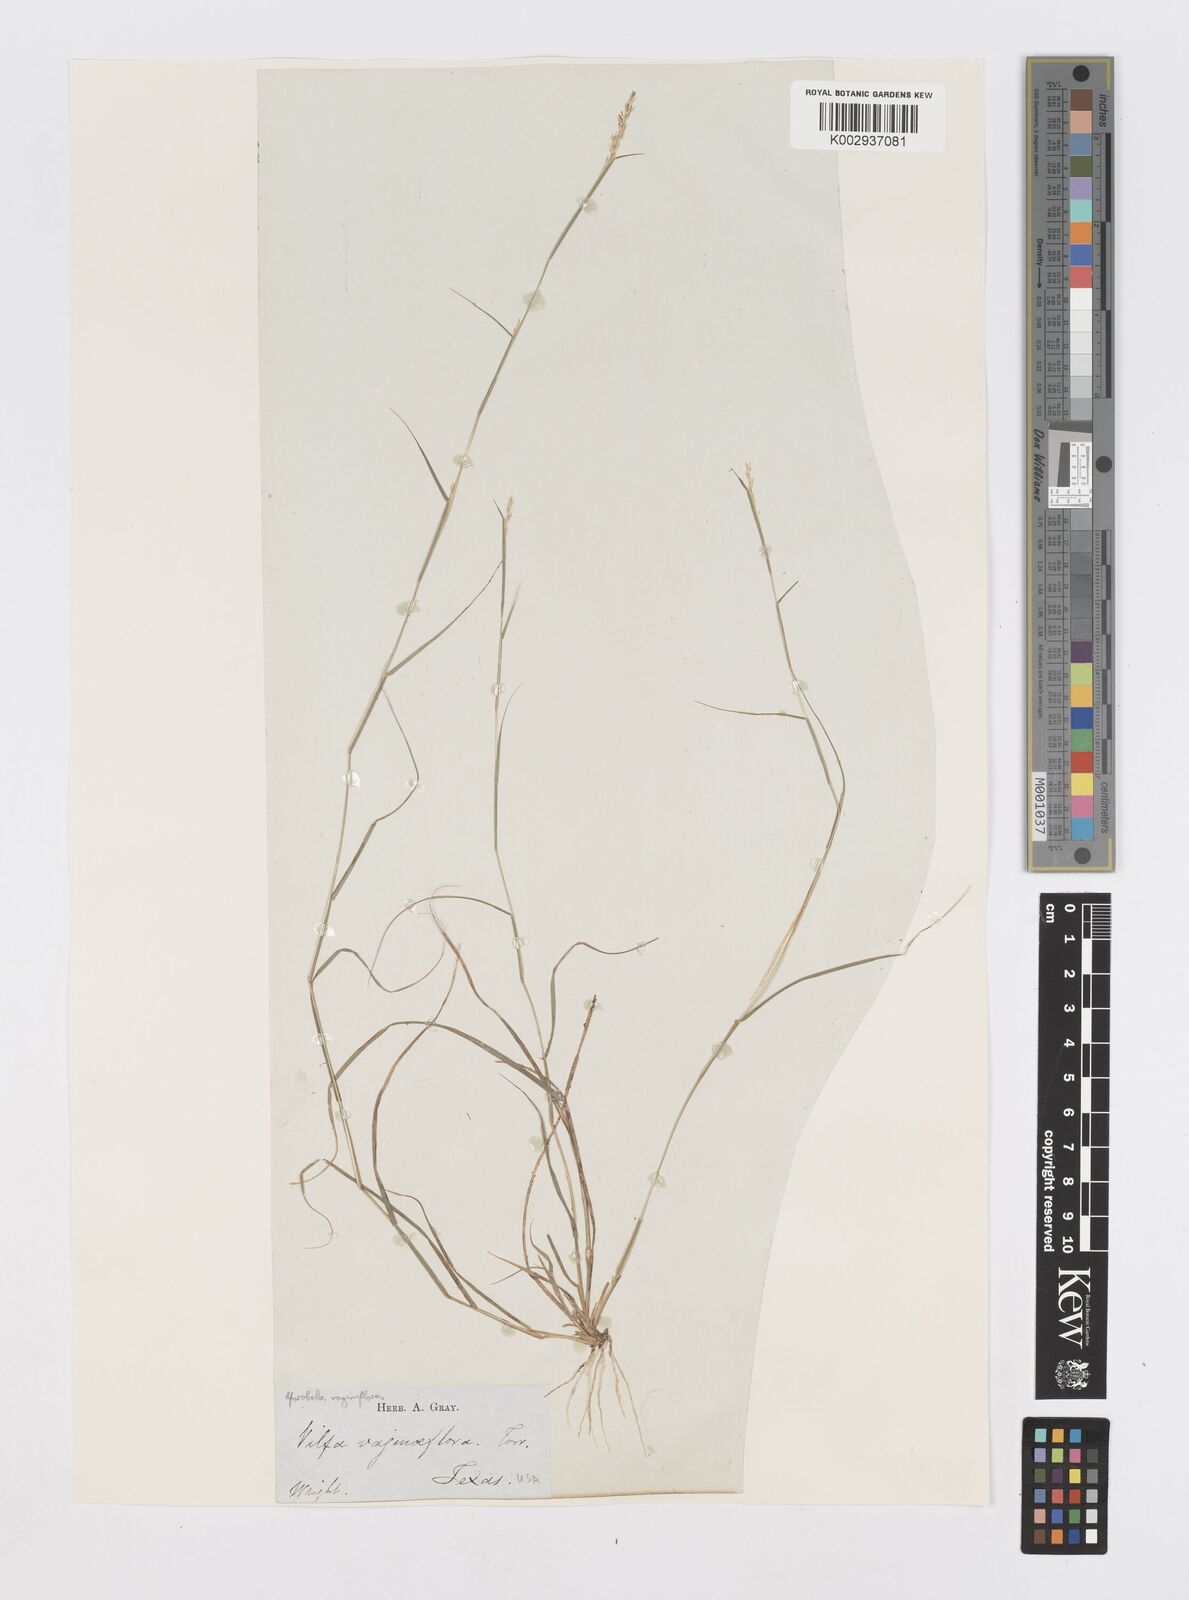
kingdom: Plantae
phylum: Tracheophyta
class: Liliopsida
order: Poales
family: Poaceae
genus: Sporobolus
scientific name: Sporobolus vaginiflorus
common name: Poverty dropseed
